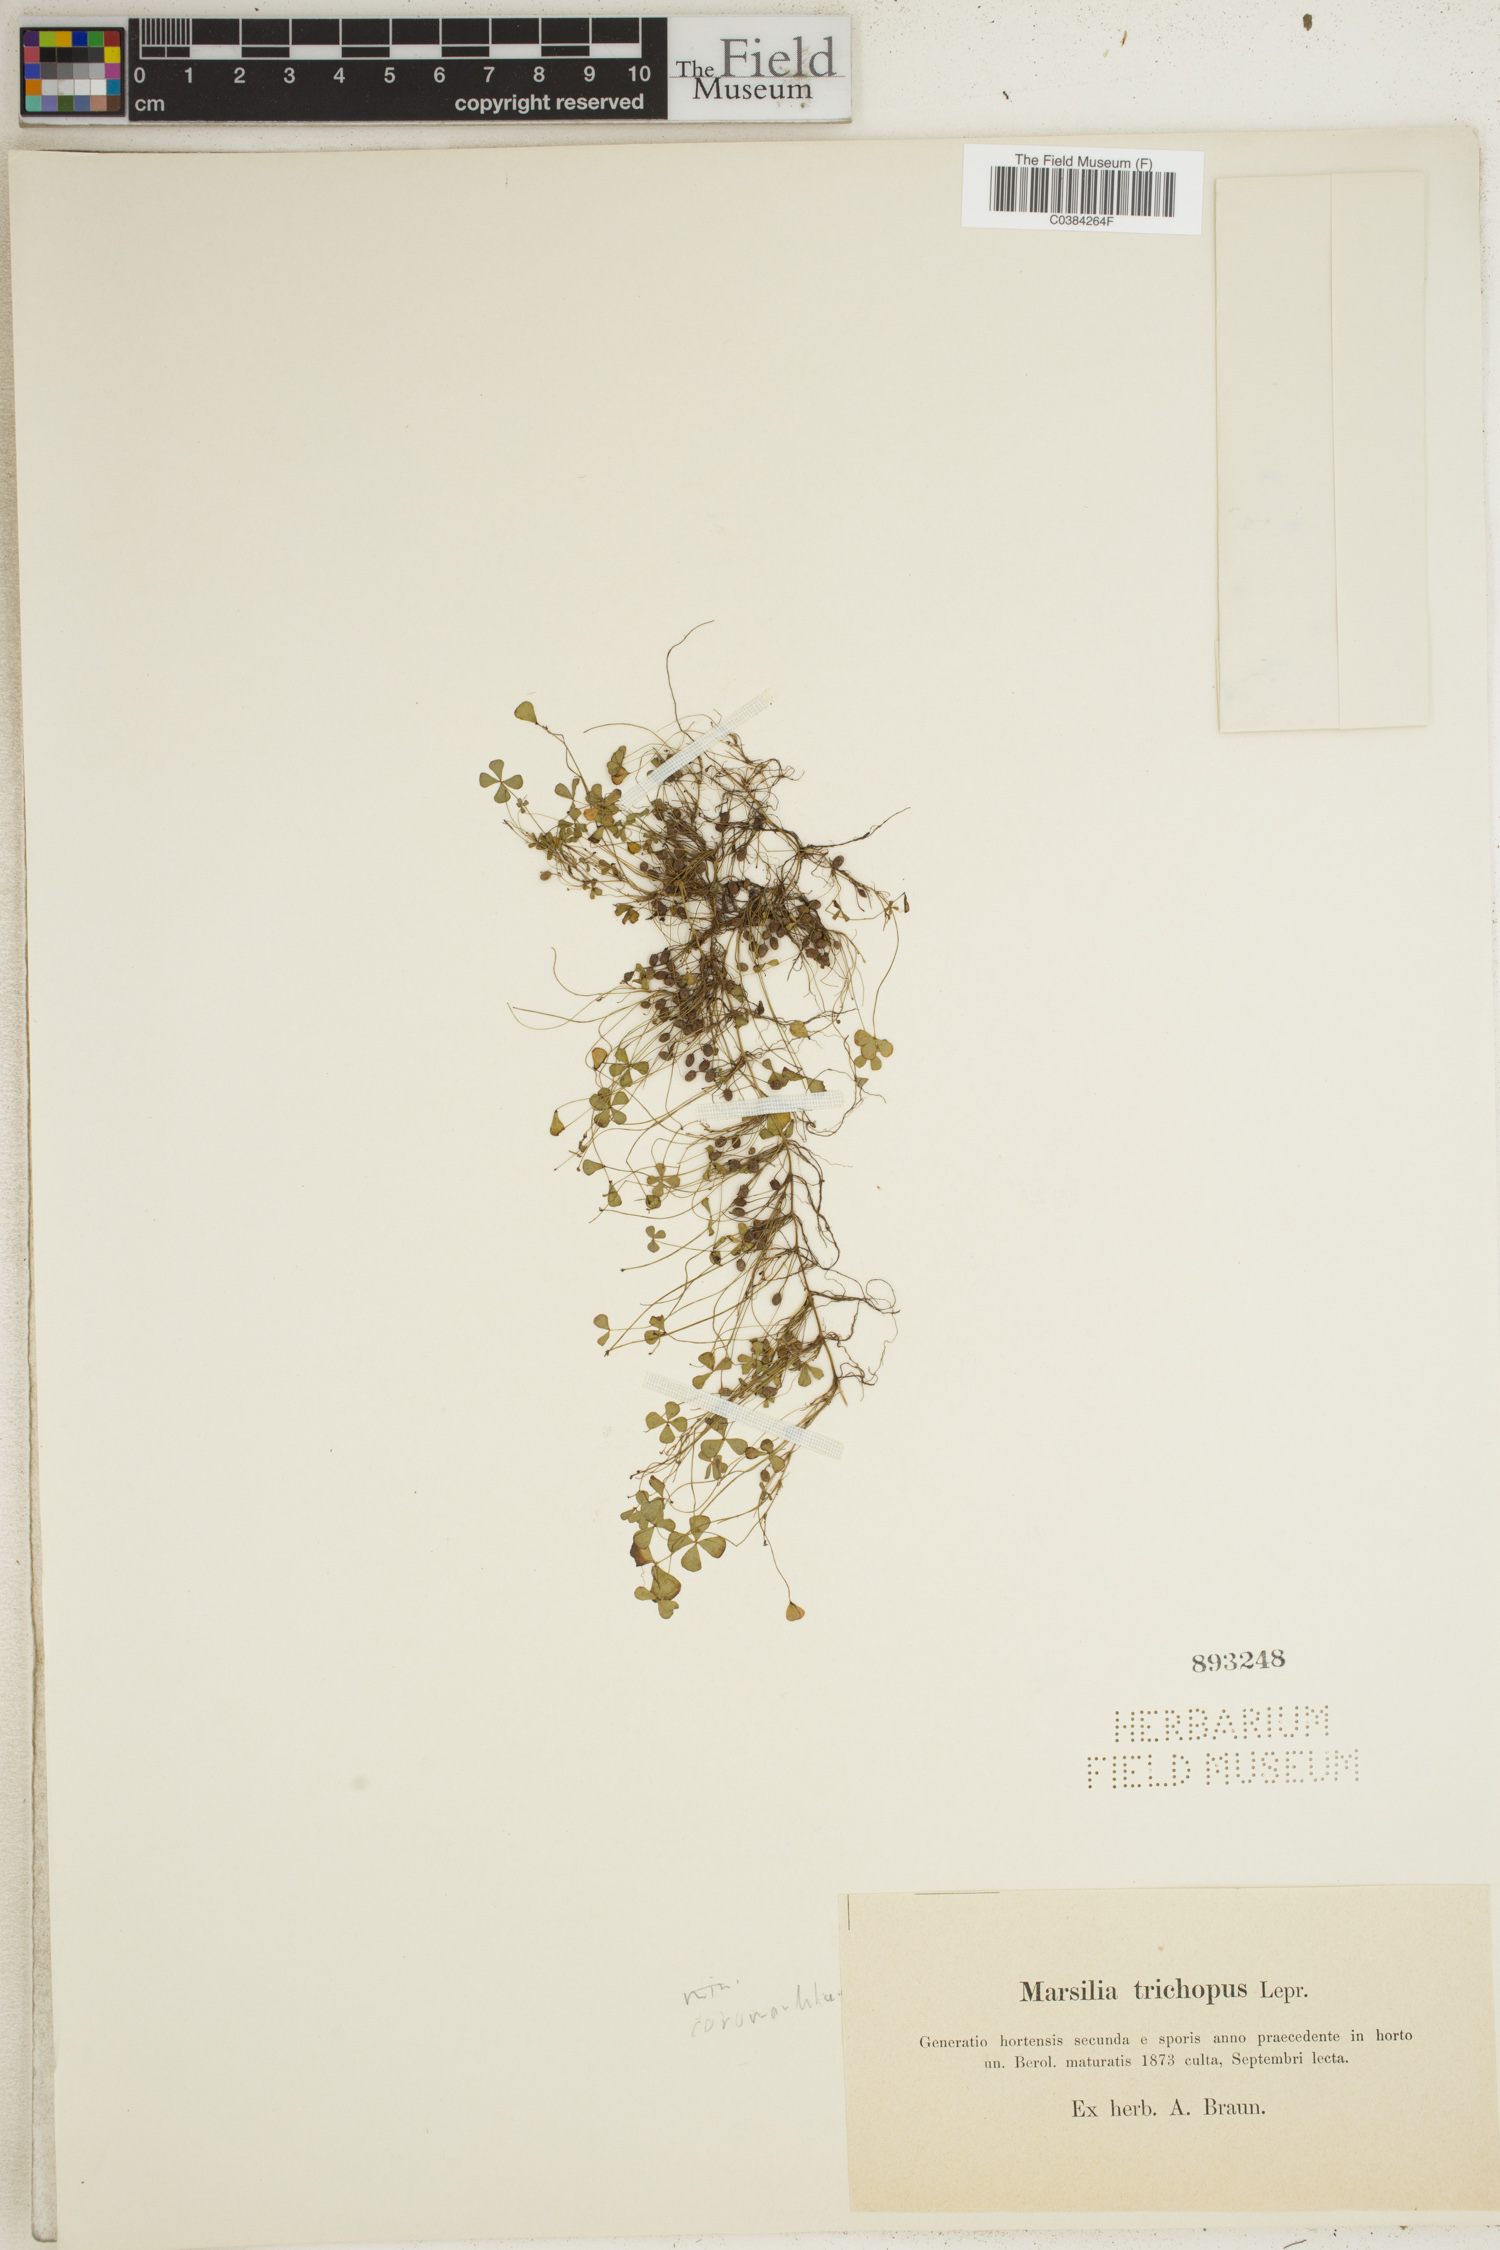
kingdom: Plantae
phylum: Tracheophyta
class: Polypodiopsida
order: Salviniales
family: Marsileaceae
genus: Marsilea
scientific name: Marsilea coromandelina
